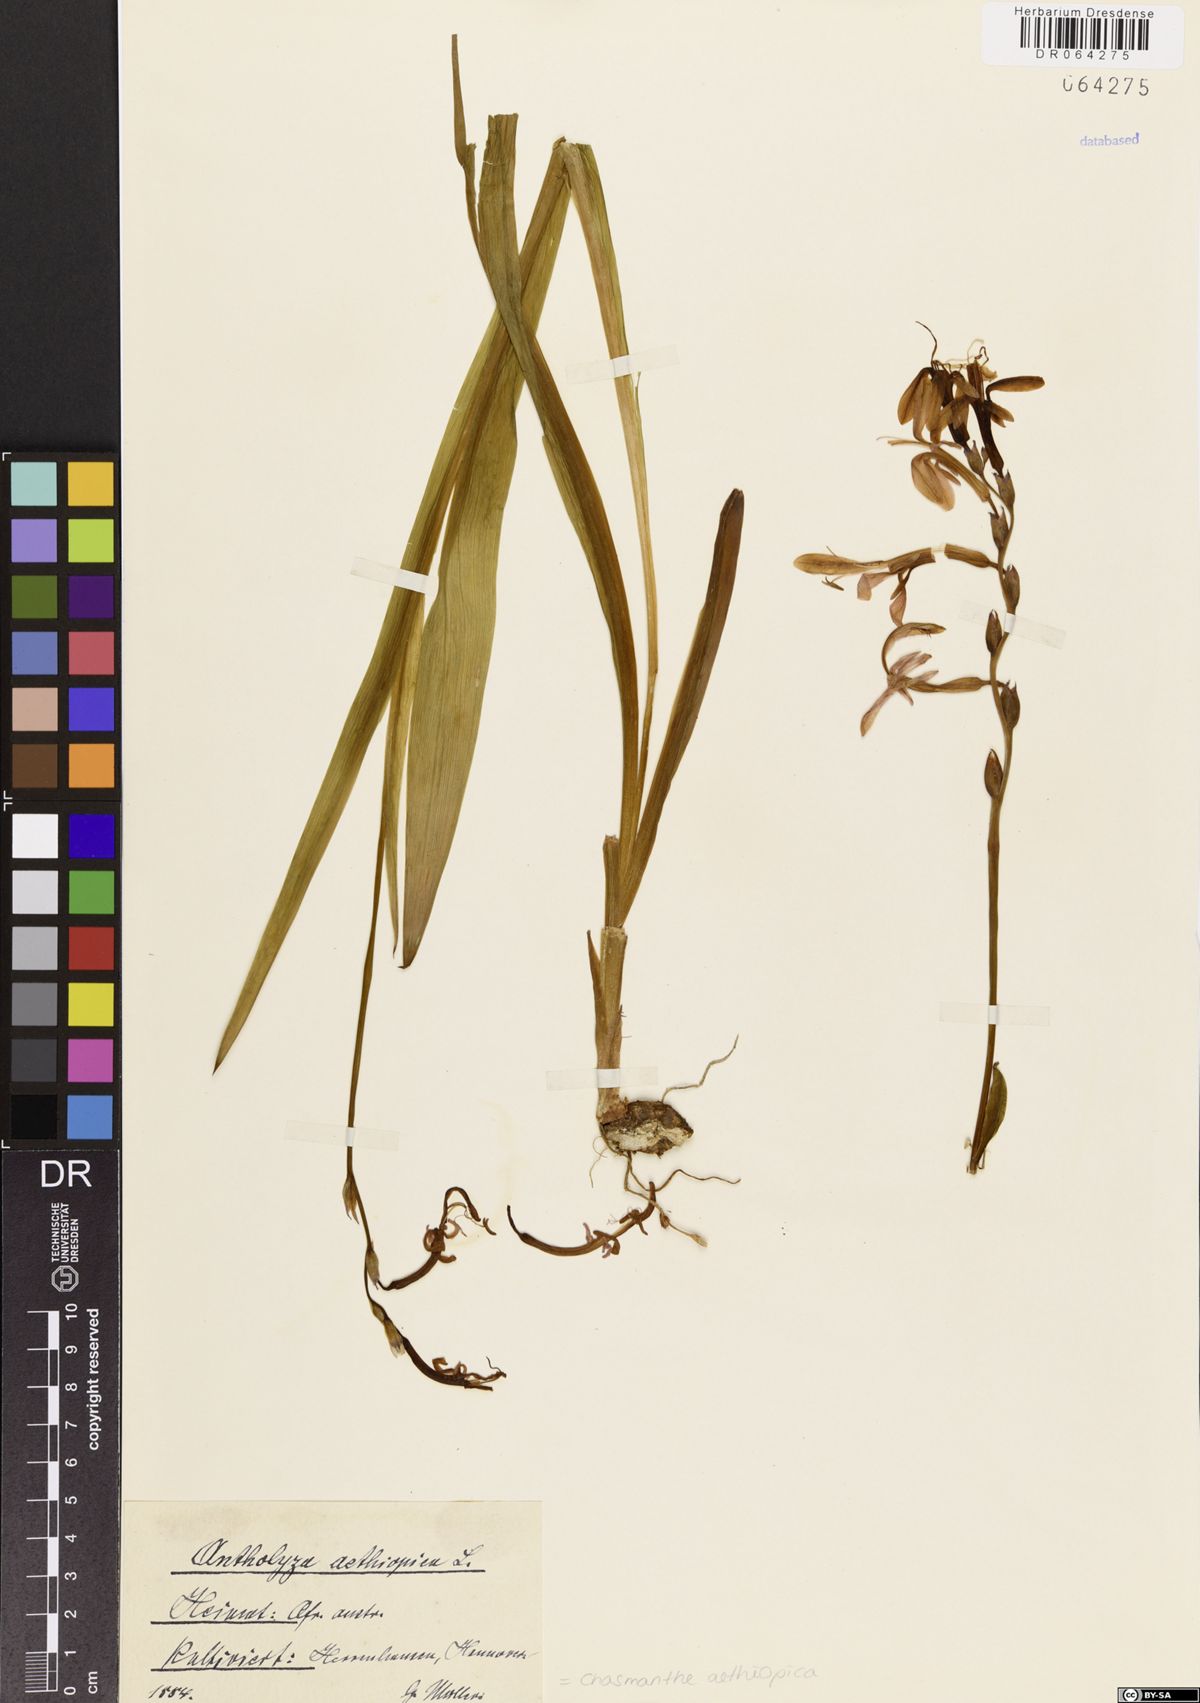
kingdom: Plantae
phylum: Tracheophyta
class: Liliopsida
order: Asparagales
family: Iridaceae
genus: Chasmanthe
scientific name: Chasmanthe aethiopica
